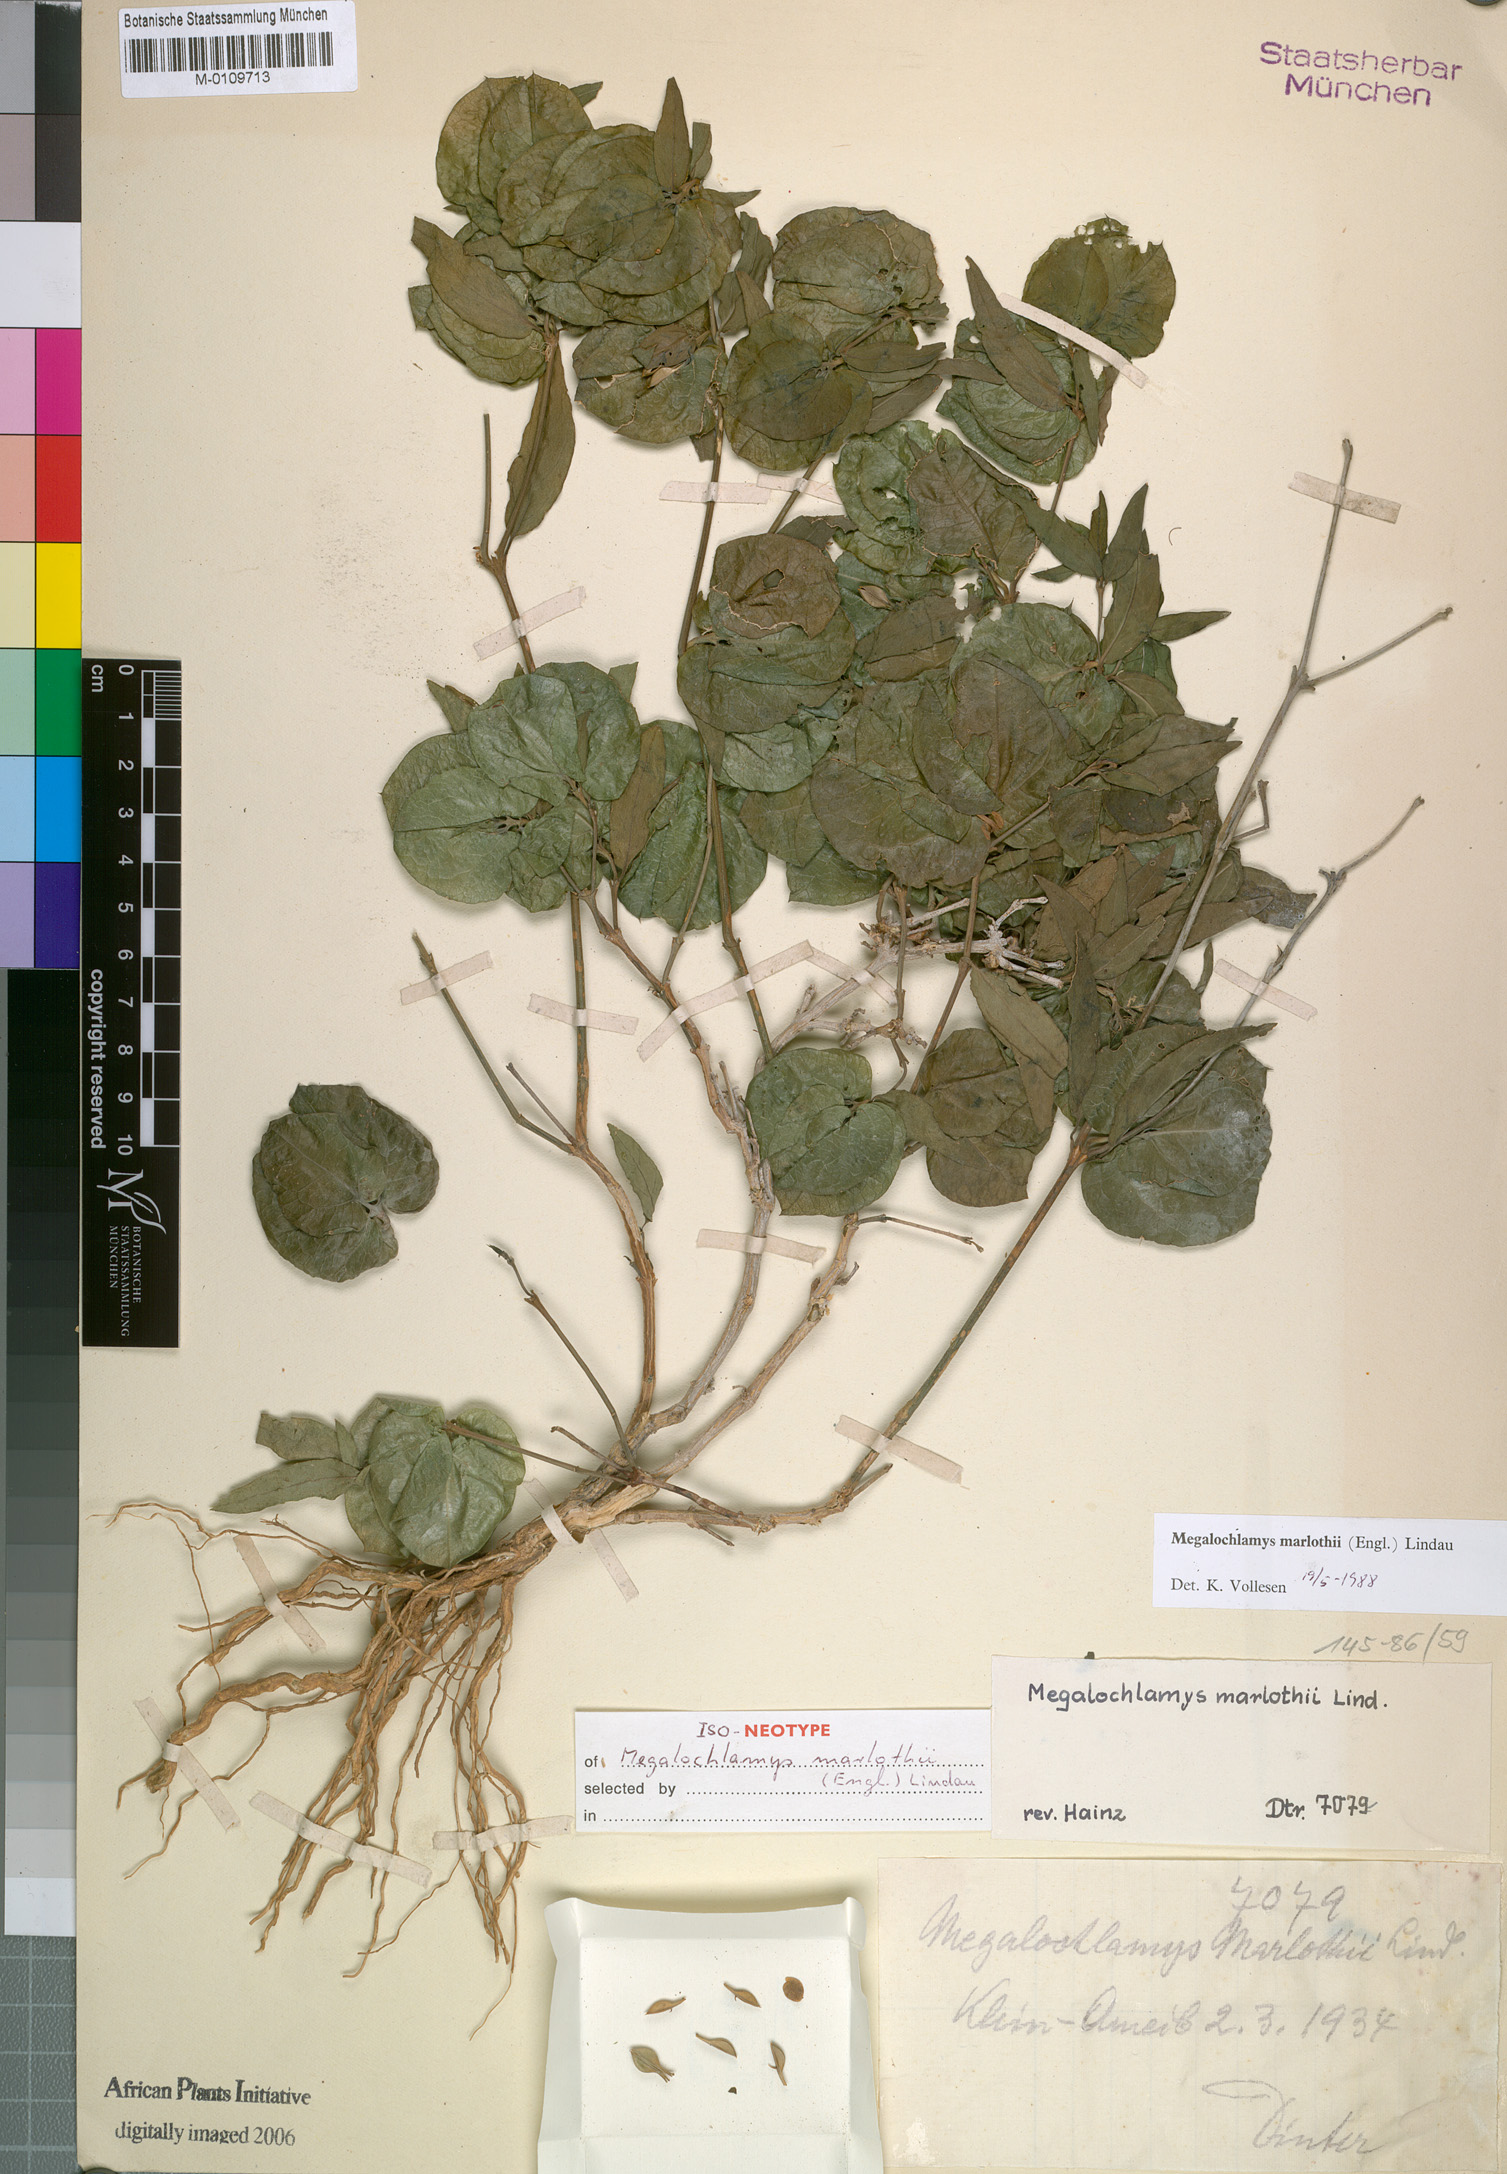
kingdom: Plantae
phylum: Tracheophyta
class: Magnoliopsida
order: Lamiales
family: Acanthaceae
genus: Megalochlamys
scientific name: Megalochlamys marlothii
